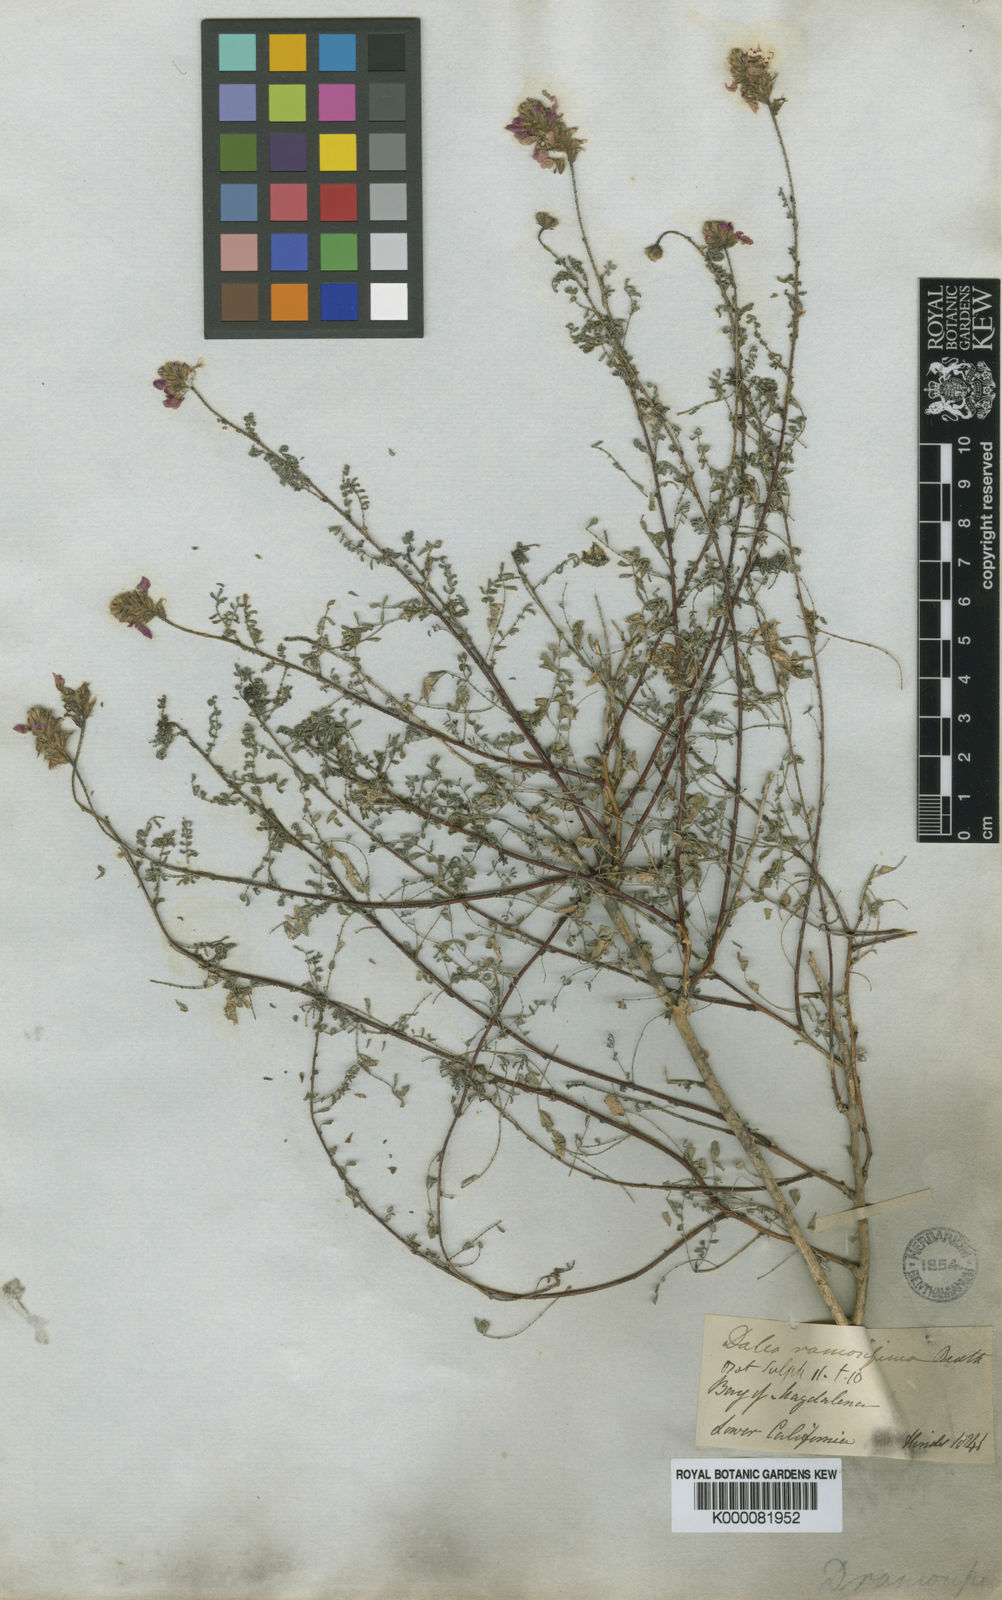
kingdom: Plantae
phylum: Tracheophyta
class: Magnoliopsida
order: Fabales
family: Fabaceae
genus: Dalea
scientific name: Dalea brandegeei
